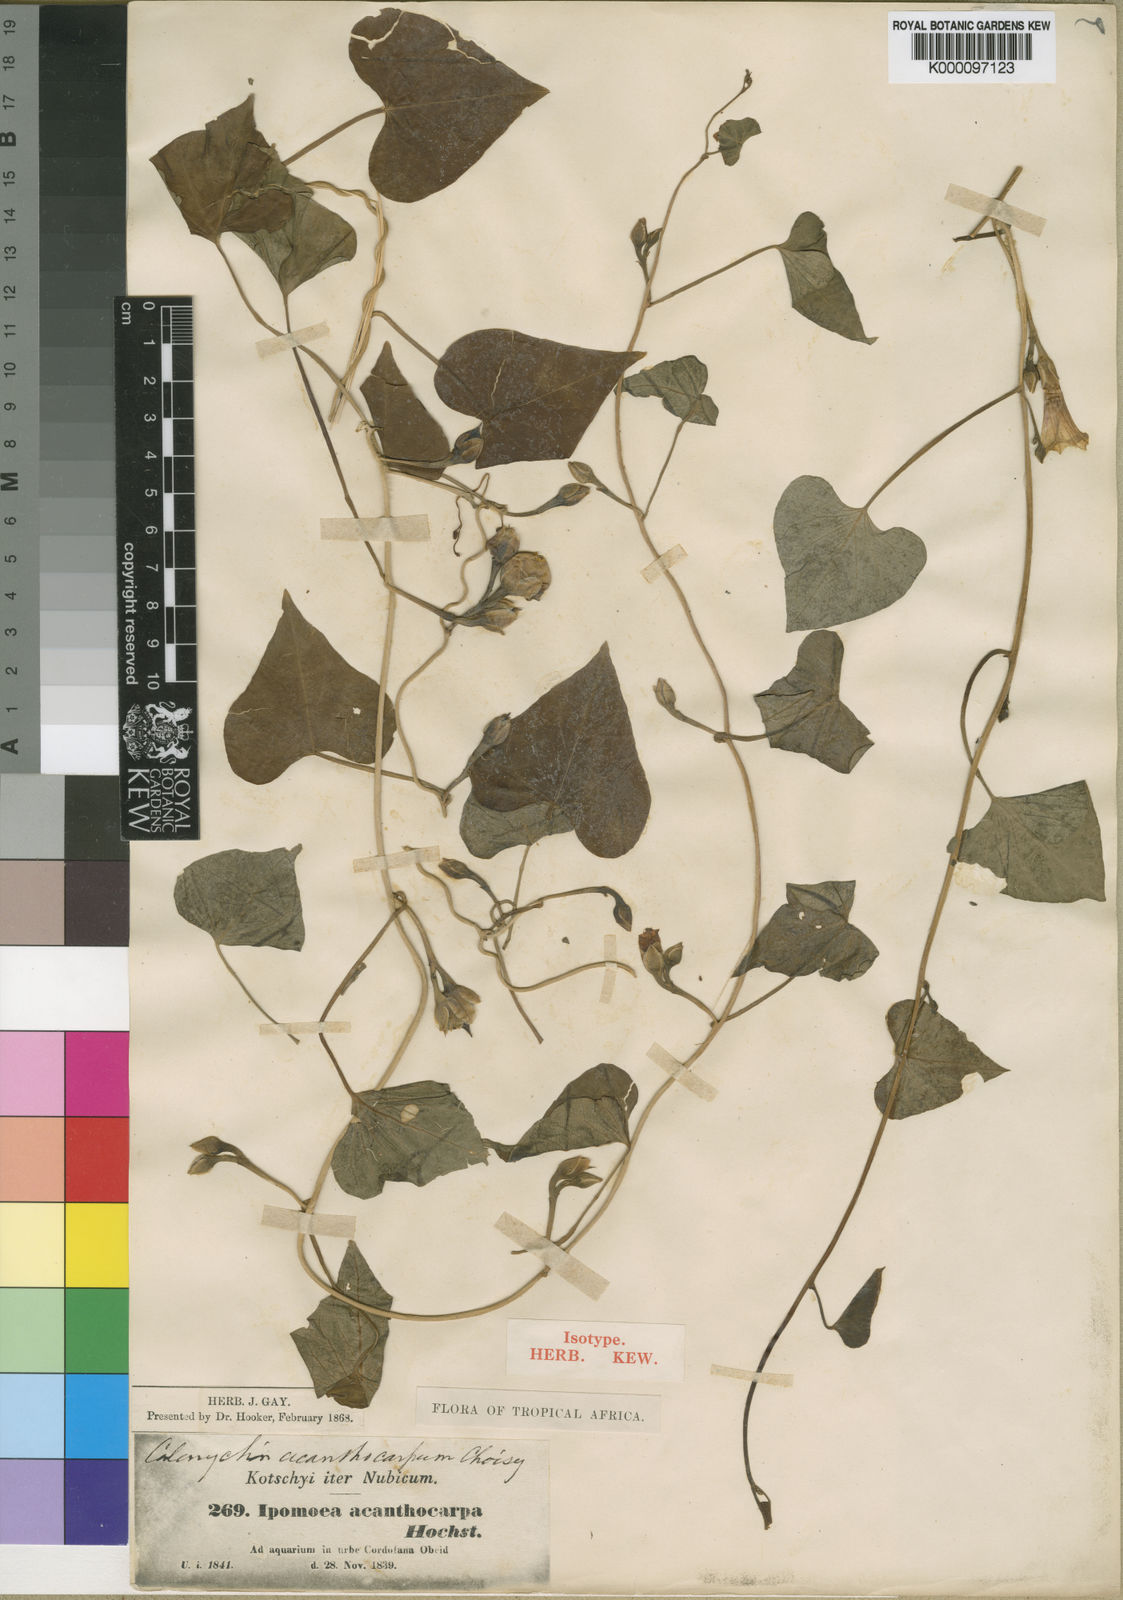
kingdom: Plantae
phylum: Tracheophyta
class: Magnoliopsida
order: Solanales
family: Convolvulaceae
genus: Ipomoea
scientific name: Ipomoea
